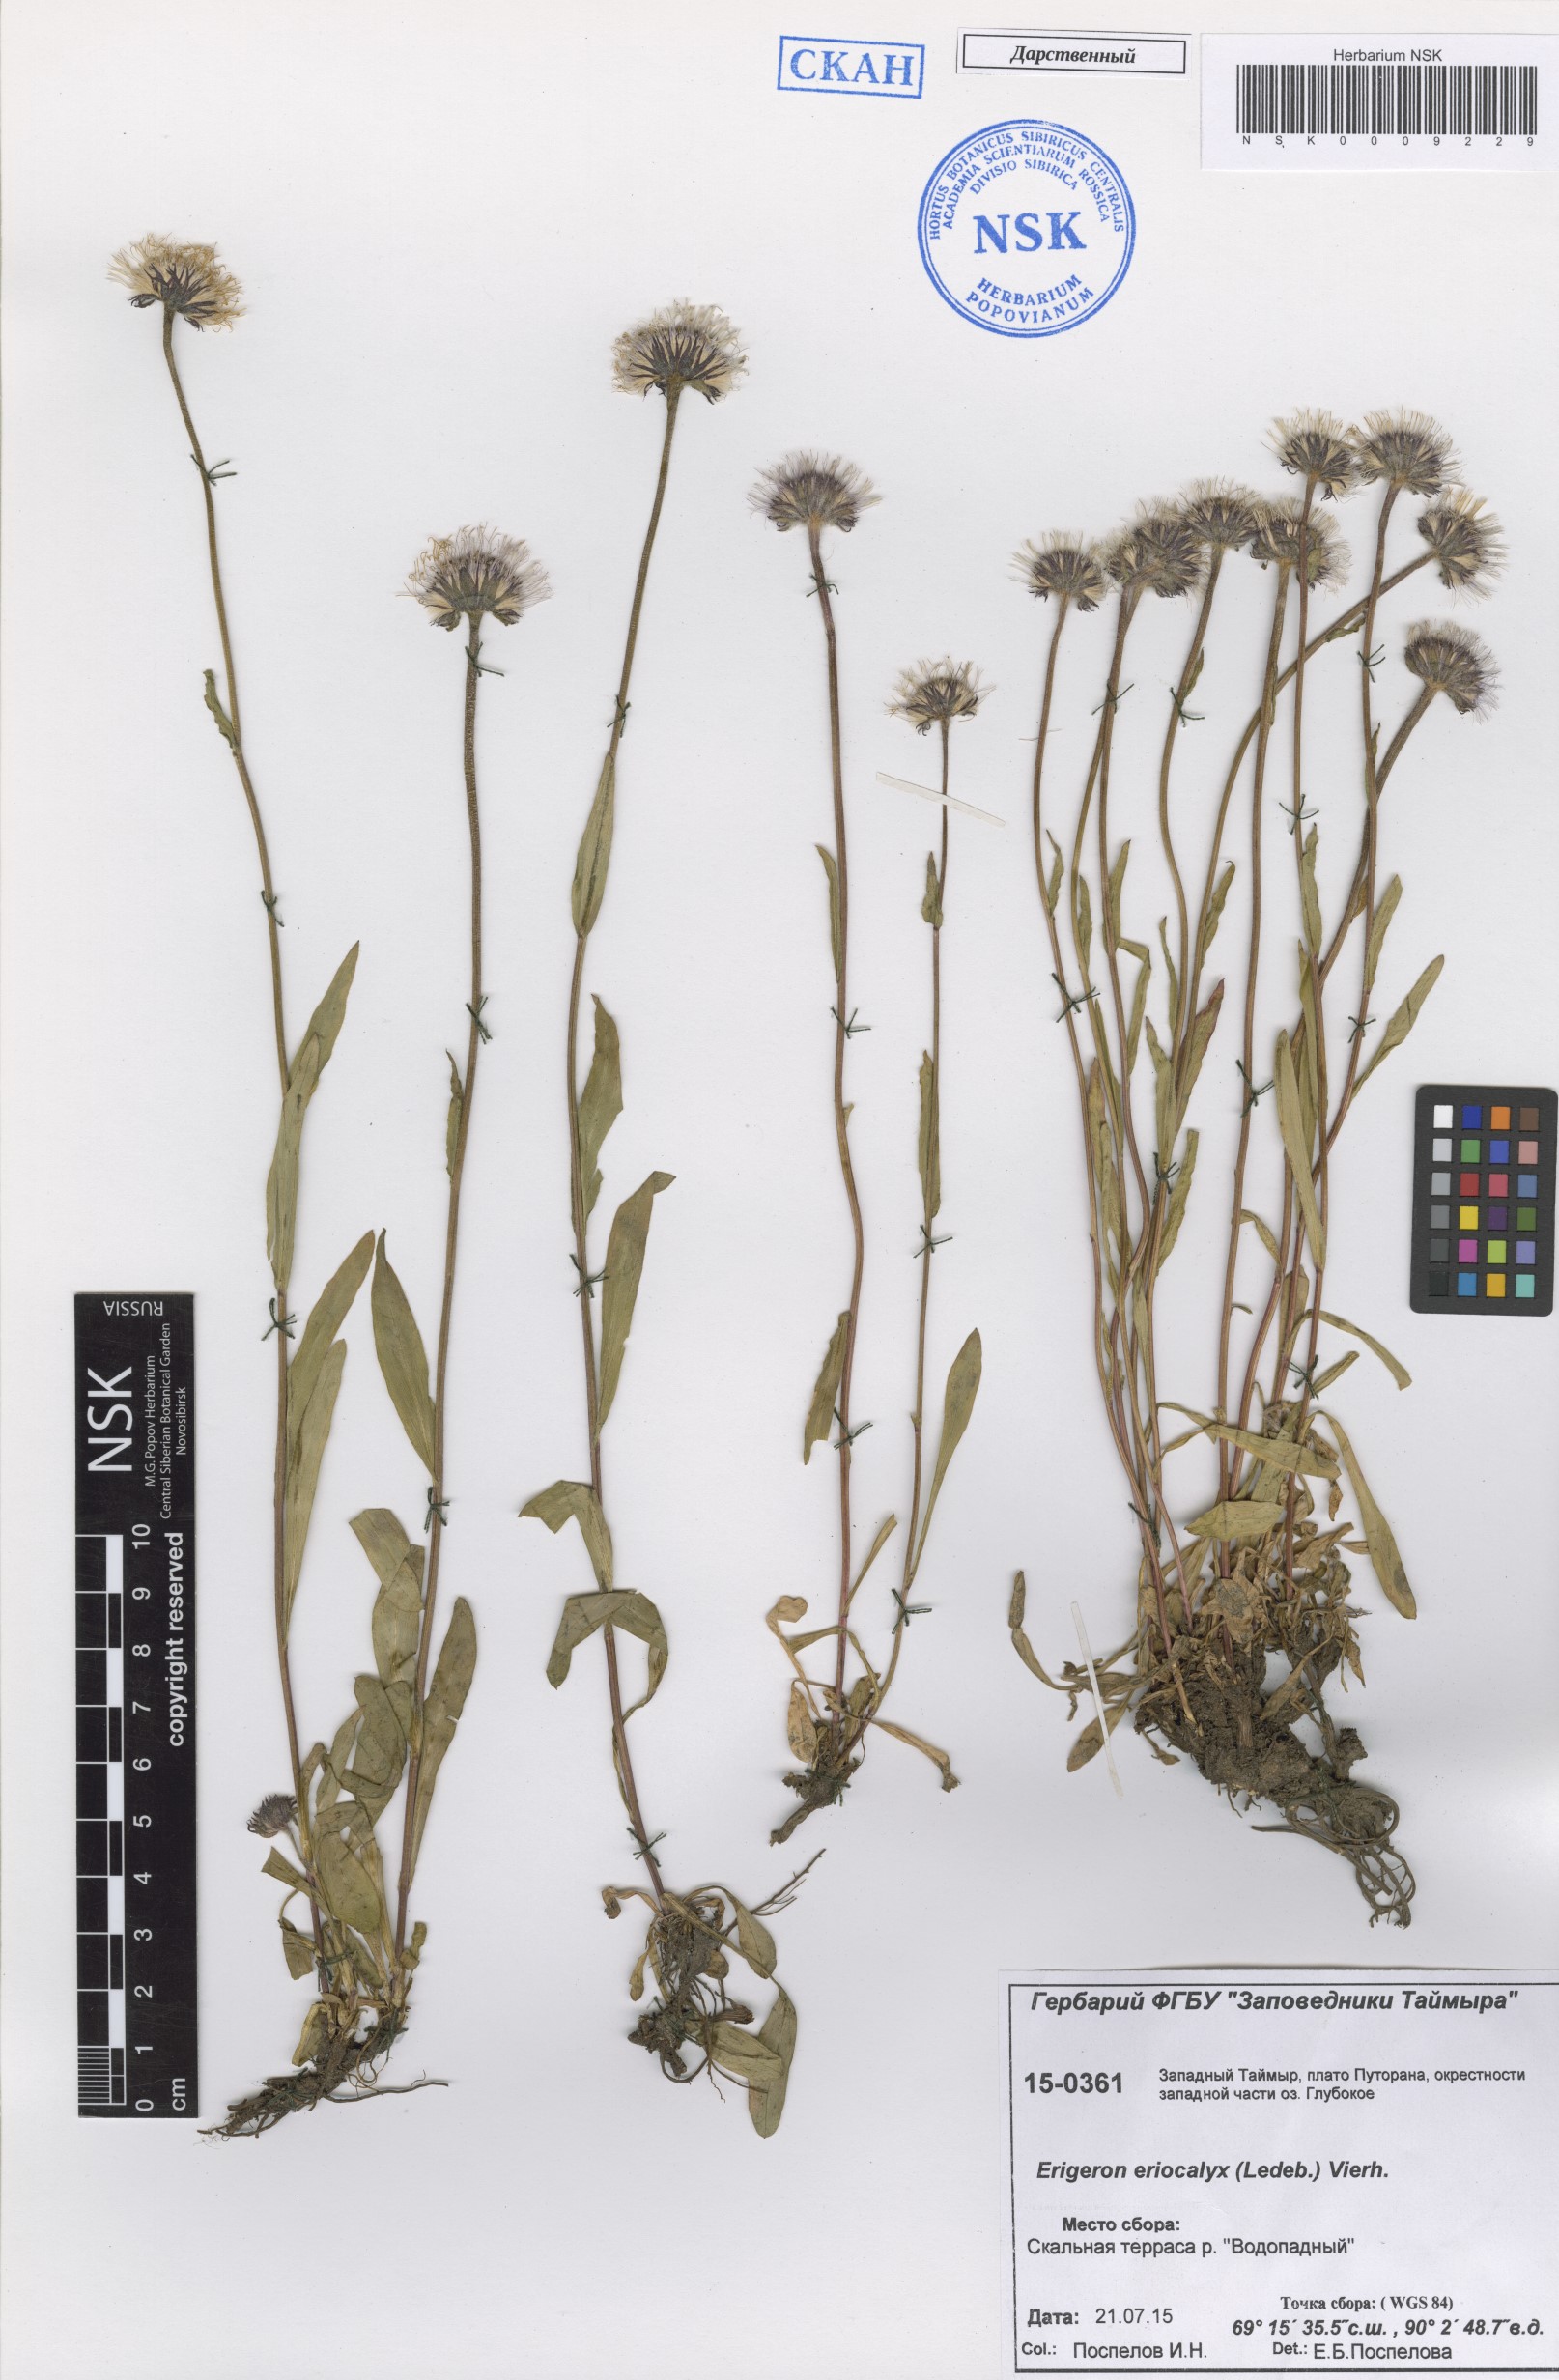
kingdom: Plantae
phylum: Tracheophyta
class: Magnoliopsida
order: Asterales
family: Asteraceae
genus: Erigeron
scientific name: Erigeron eriocalyx
